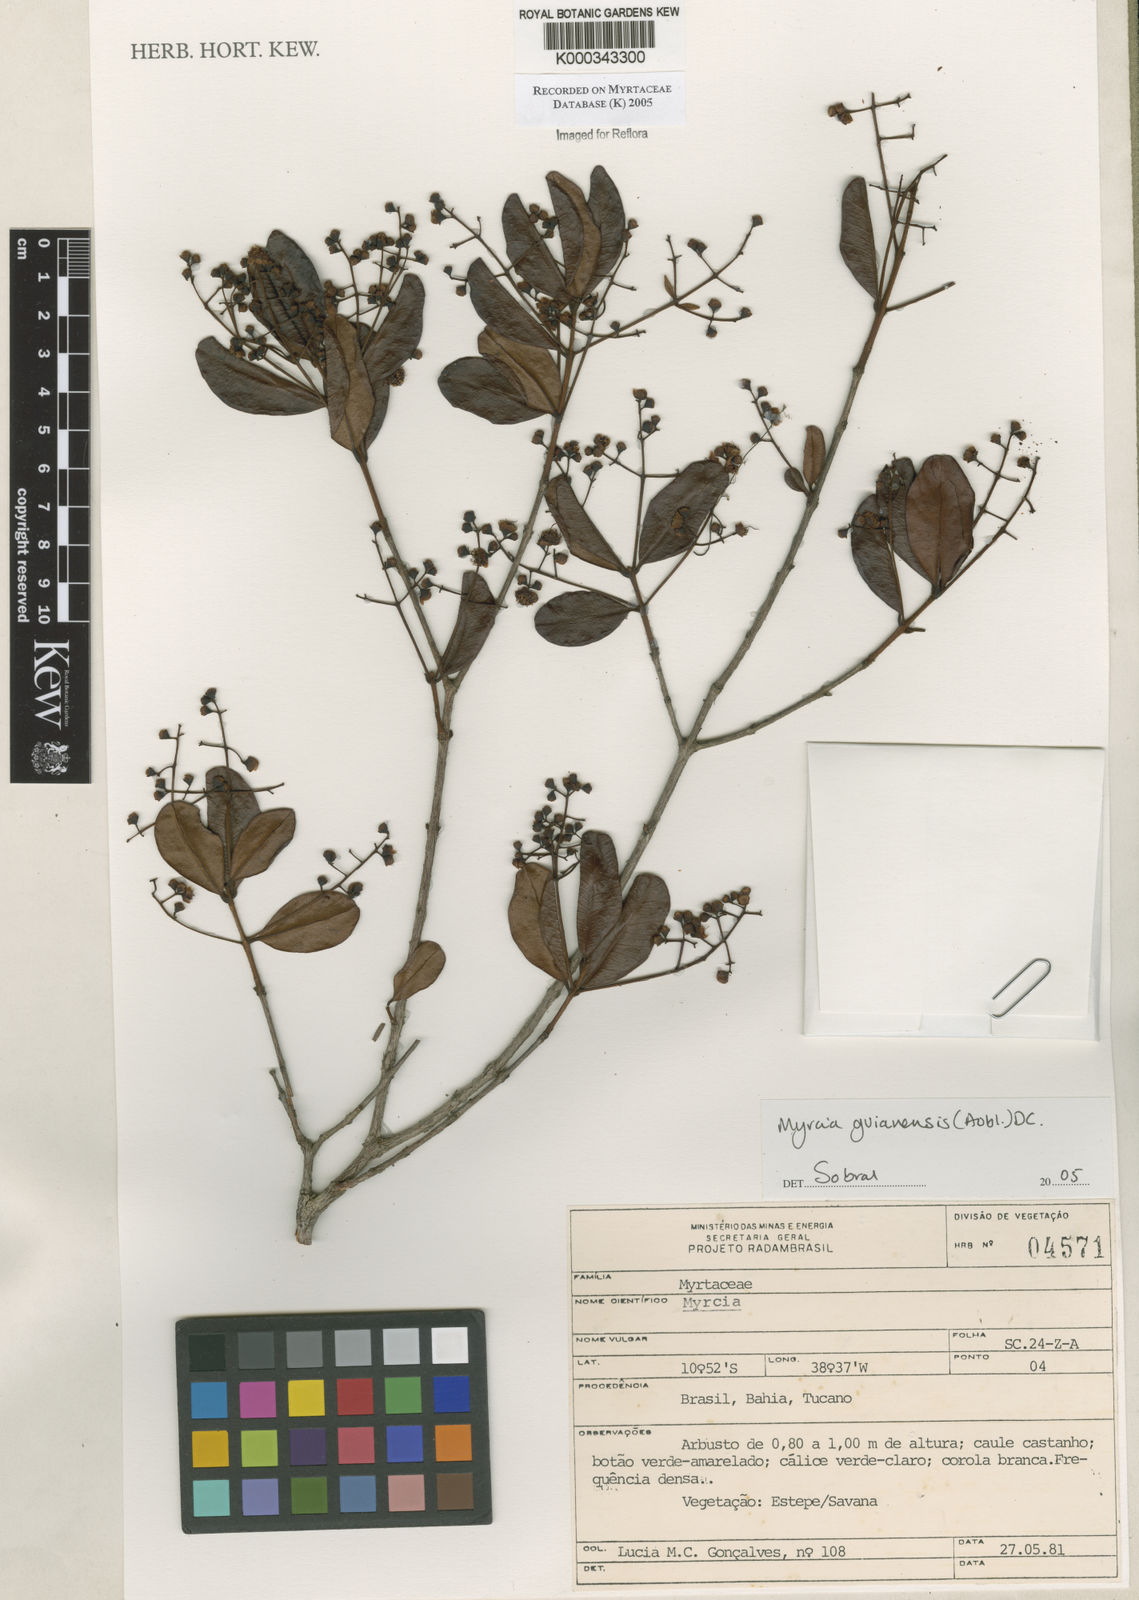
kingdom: Plantae
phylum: Tracheophyta
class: Magnoliopsida
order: Myrtales
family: Myrtaceae
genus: Myrcia
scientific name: Myrcia guianensis
